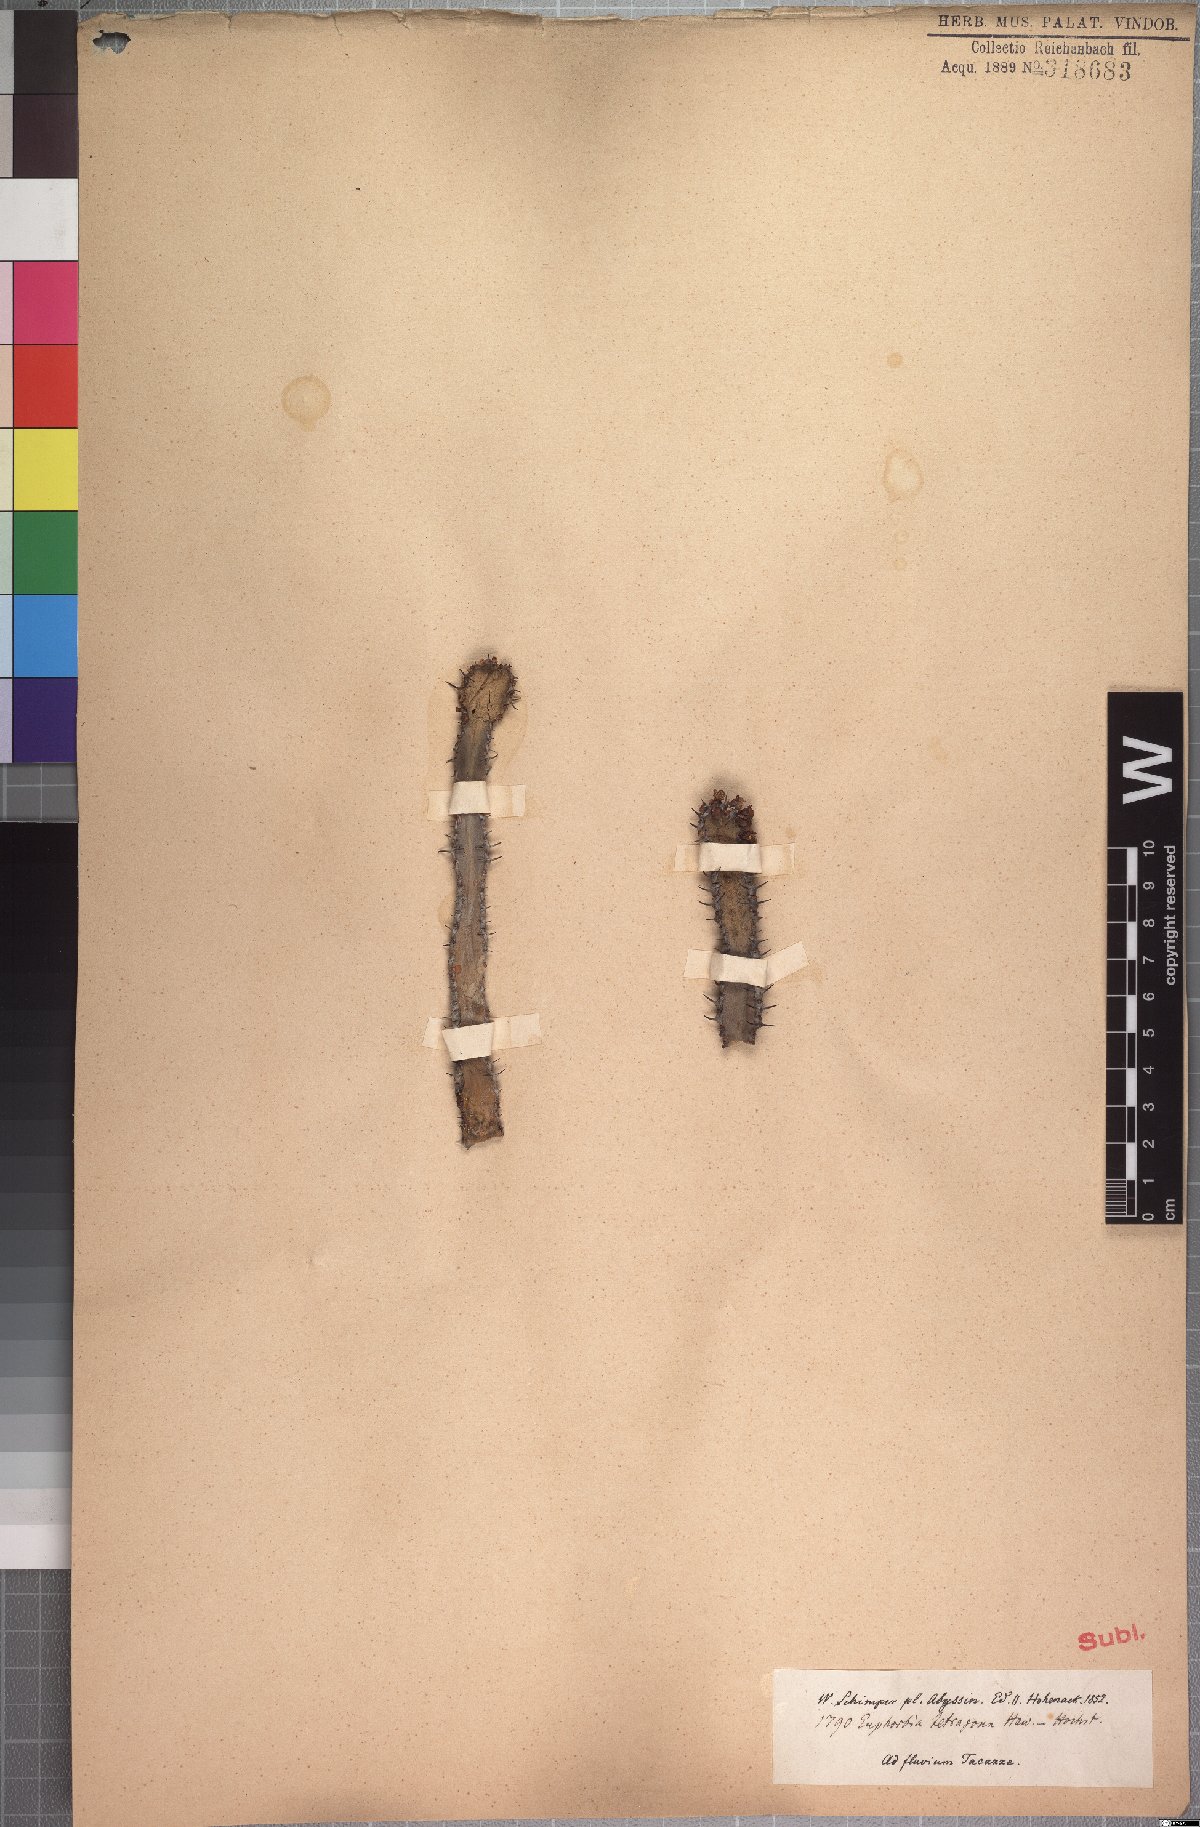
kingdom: Plantae
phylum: Tracheophyta
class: Magnoliopsida
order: Malpighiales
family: Euphorbiaceae
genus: Euphorbia
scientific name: Euphorbia polyacantha
